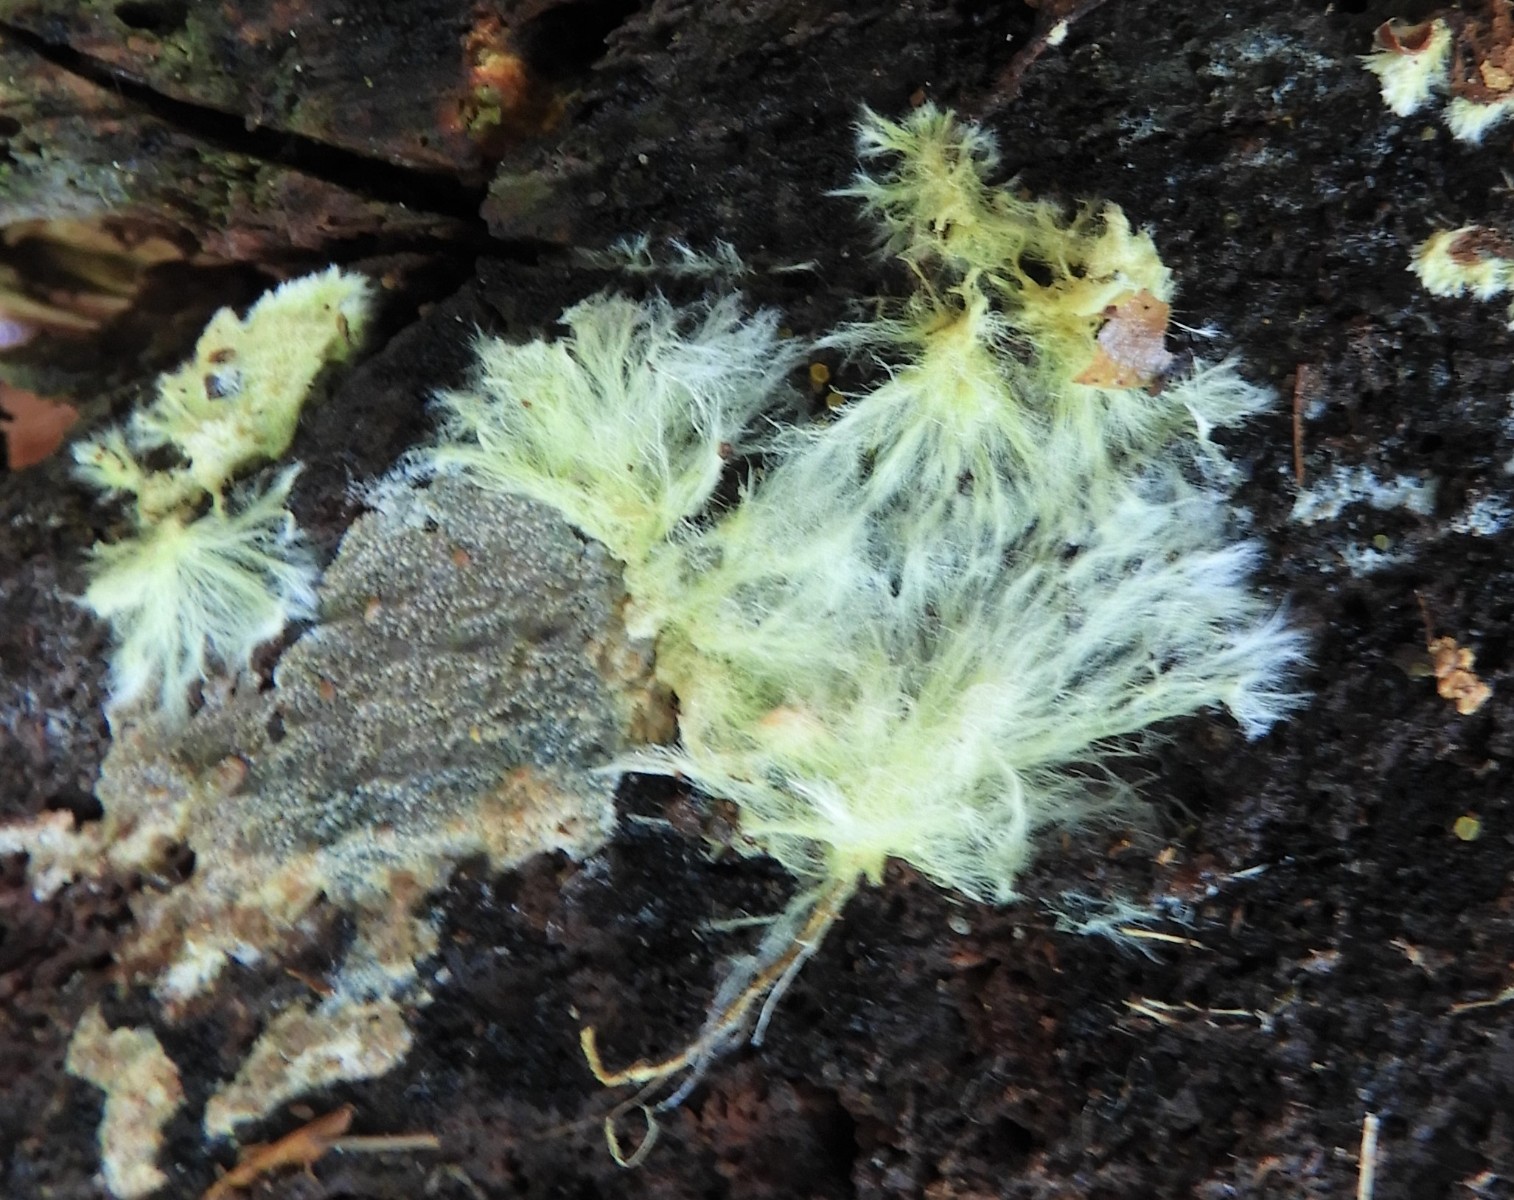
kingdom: Fungi
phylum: Basidiomycota
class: Agaricomycetes
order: Russulales
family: Xenasmataceae
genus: Xenasmatella
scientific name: Xenasmatella vaga
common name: svovl-strenghinde
